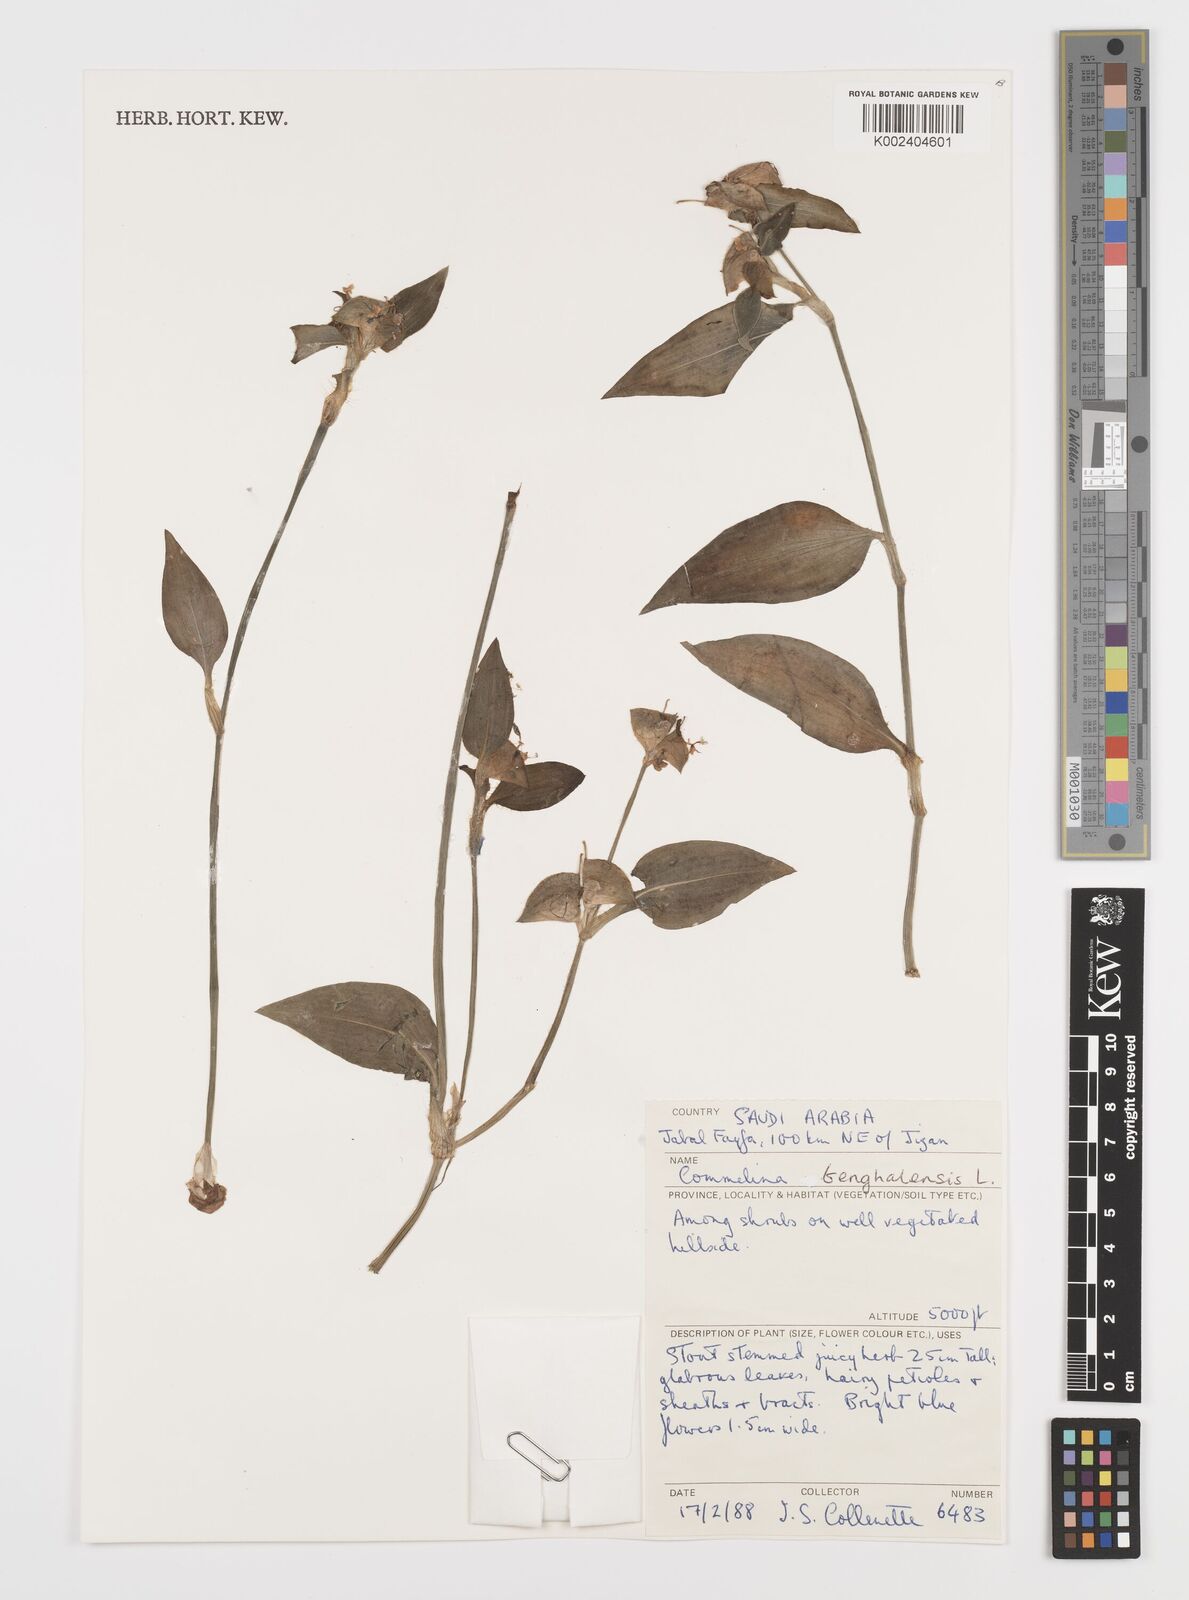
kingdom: Plantae
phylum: Tracheophyta
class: Liliopsida
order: Commelinales
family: Commelinaceae
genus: Commelina
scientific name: Commelina benghalensis
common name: Jio
